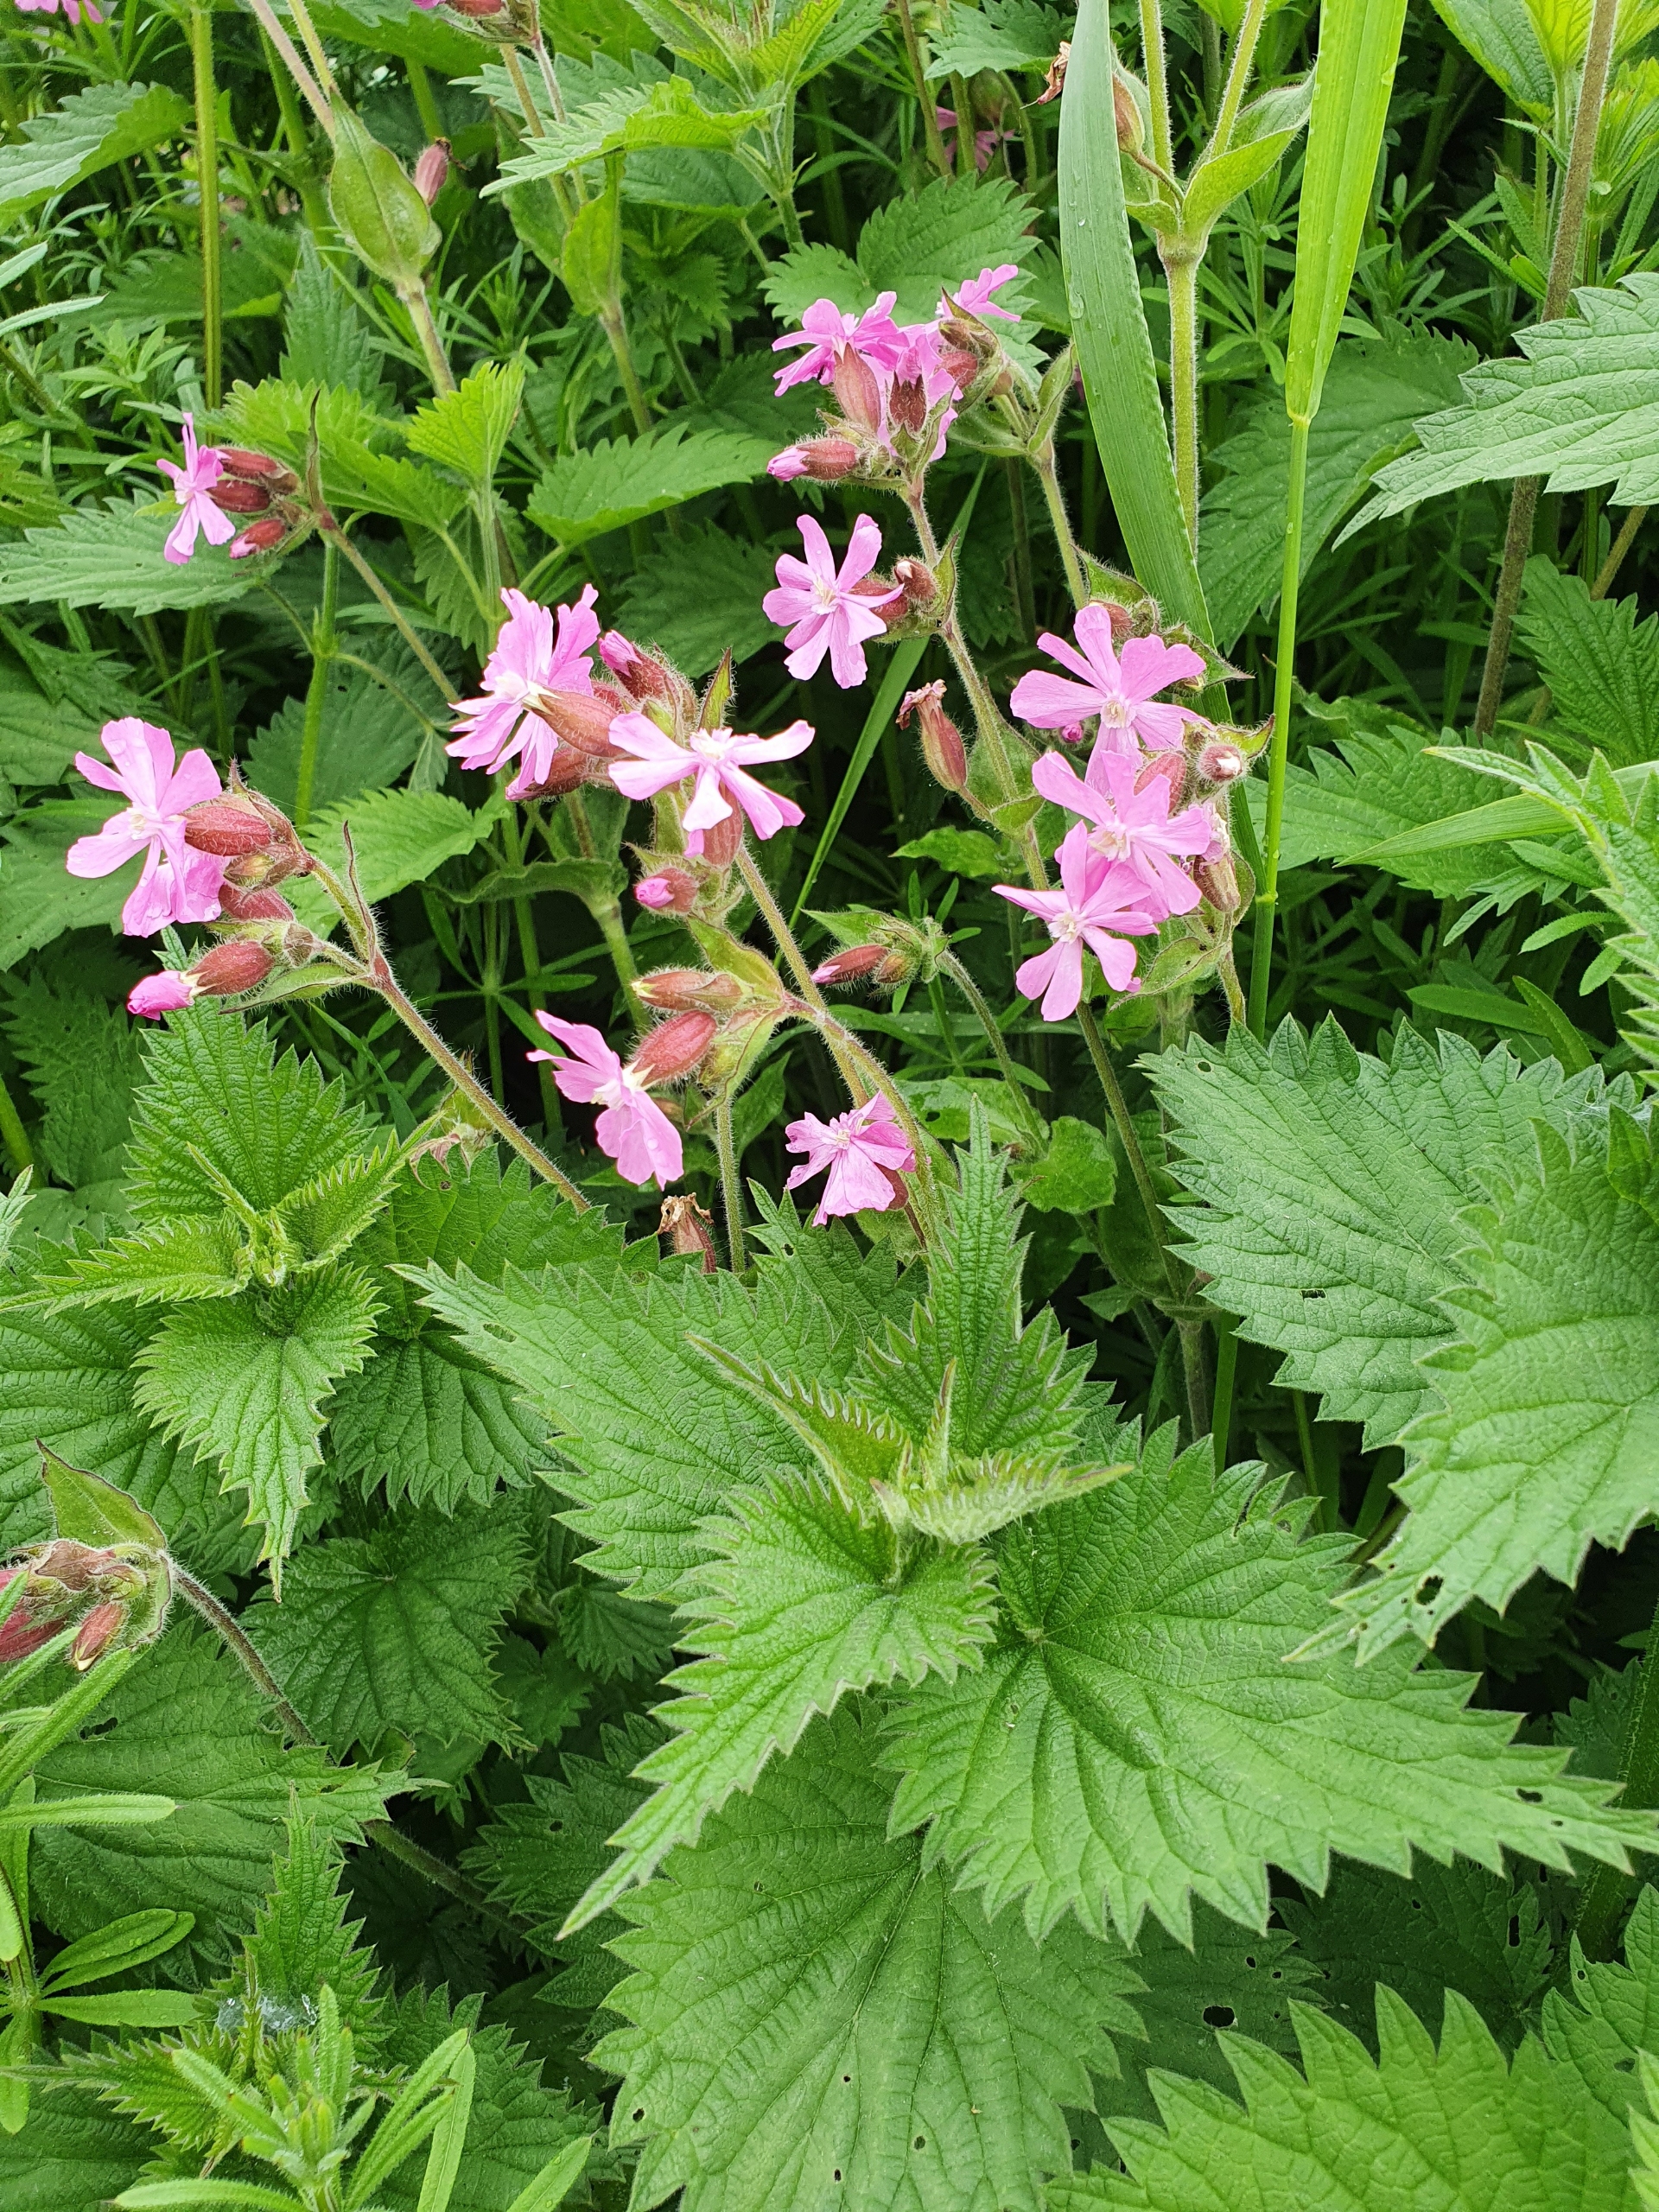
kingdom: Plantae
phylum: Tracheophyta
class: Magnoliopsida
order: Caryophyllales
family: Caryophyllaceae
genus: Silene
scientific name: Silene dioica
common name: Dagpragtstjerne
